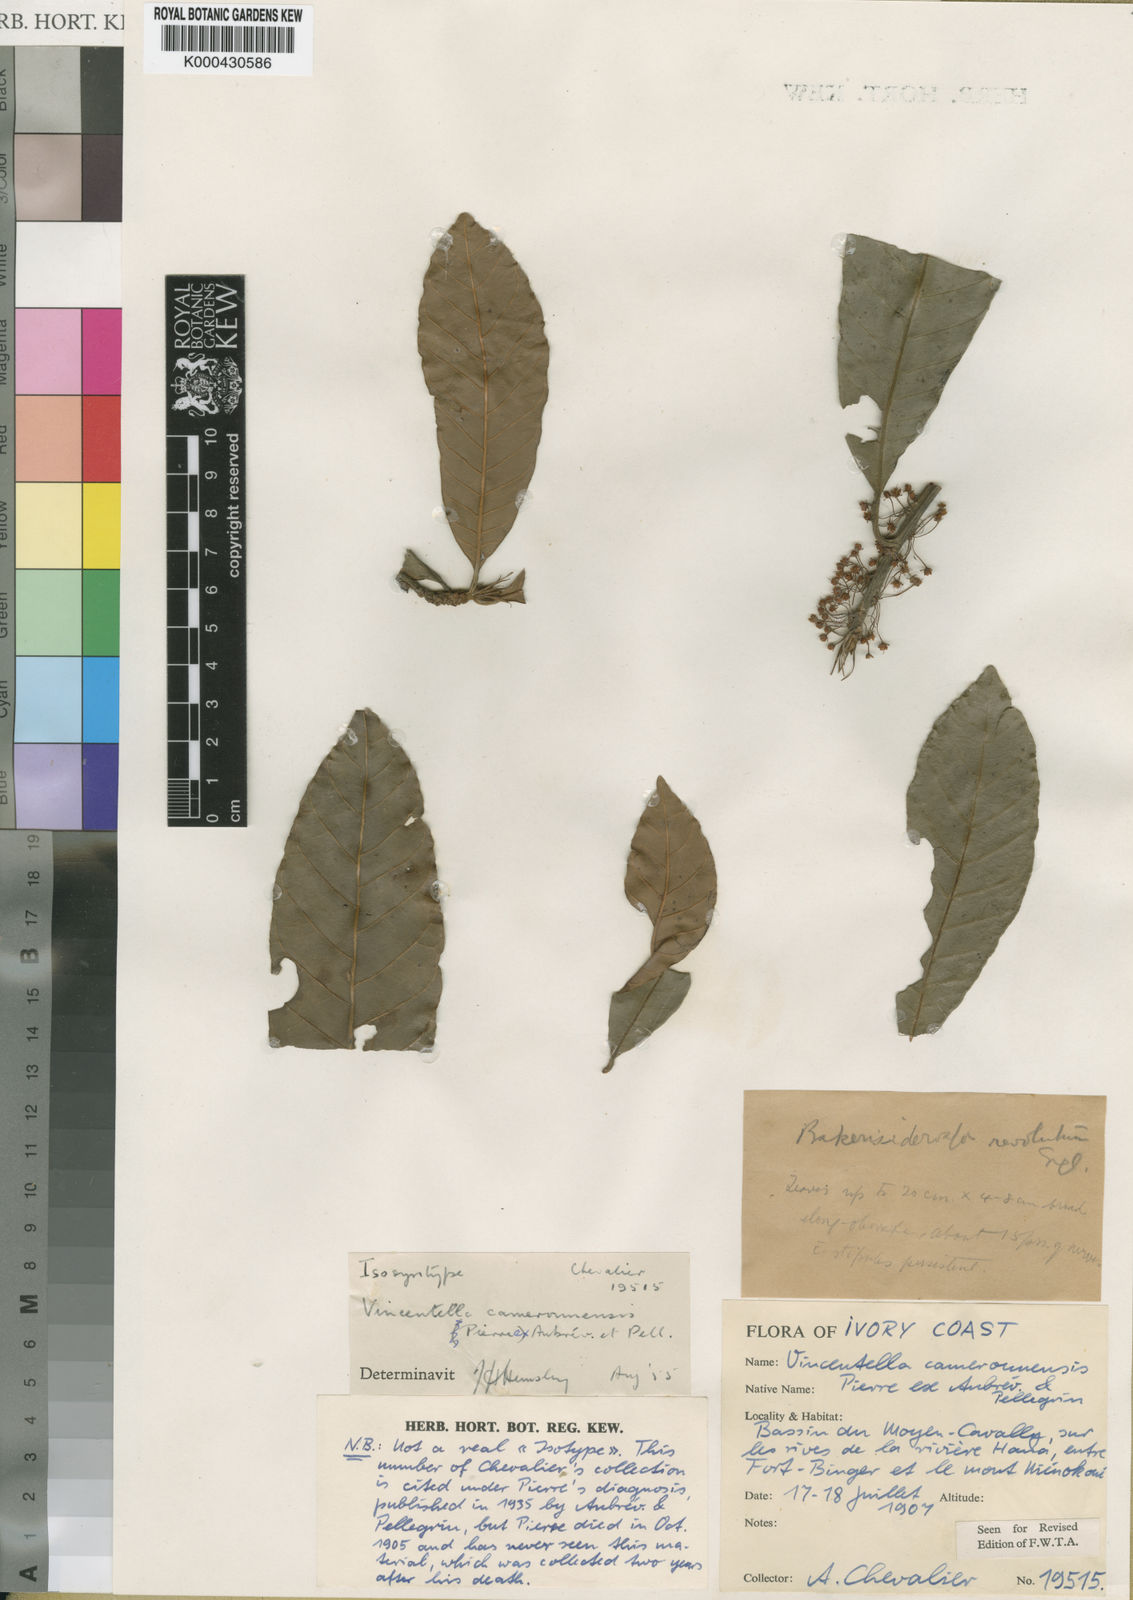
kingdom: Plantae
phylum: Tracheophyta
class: Magnoliopsida
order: Ericales
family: Sapotaceae
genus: Synsepalum
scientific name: Synsepalum revolutum
